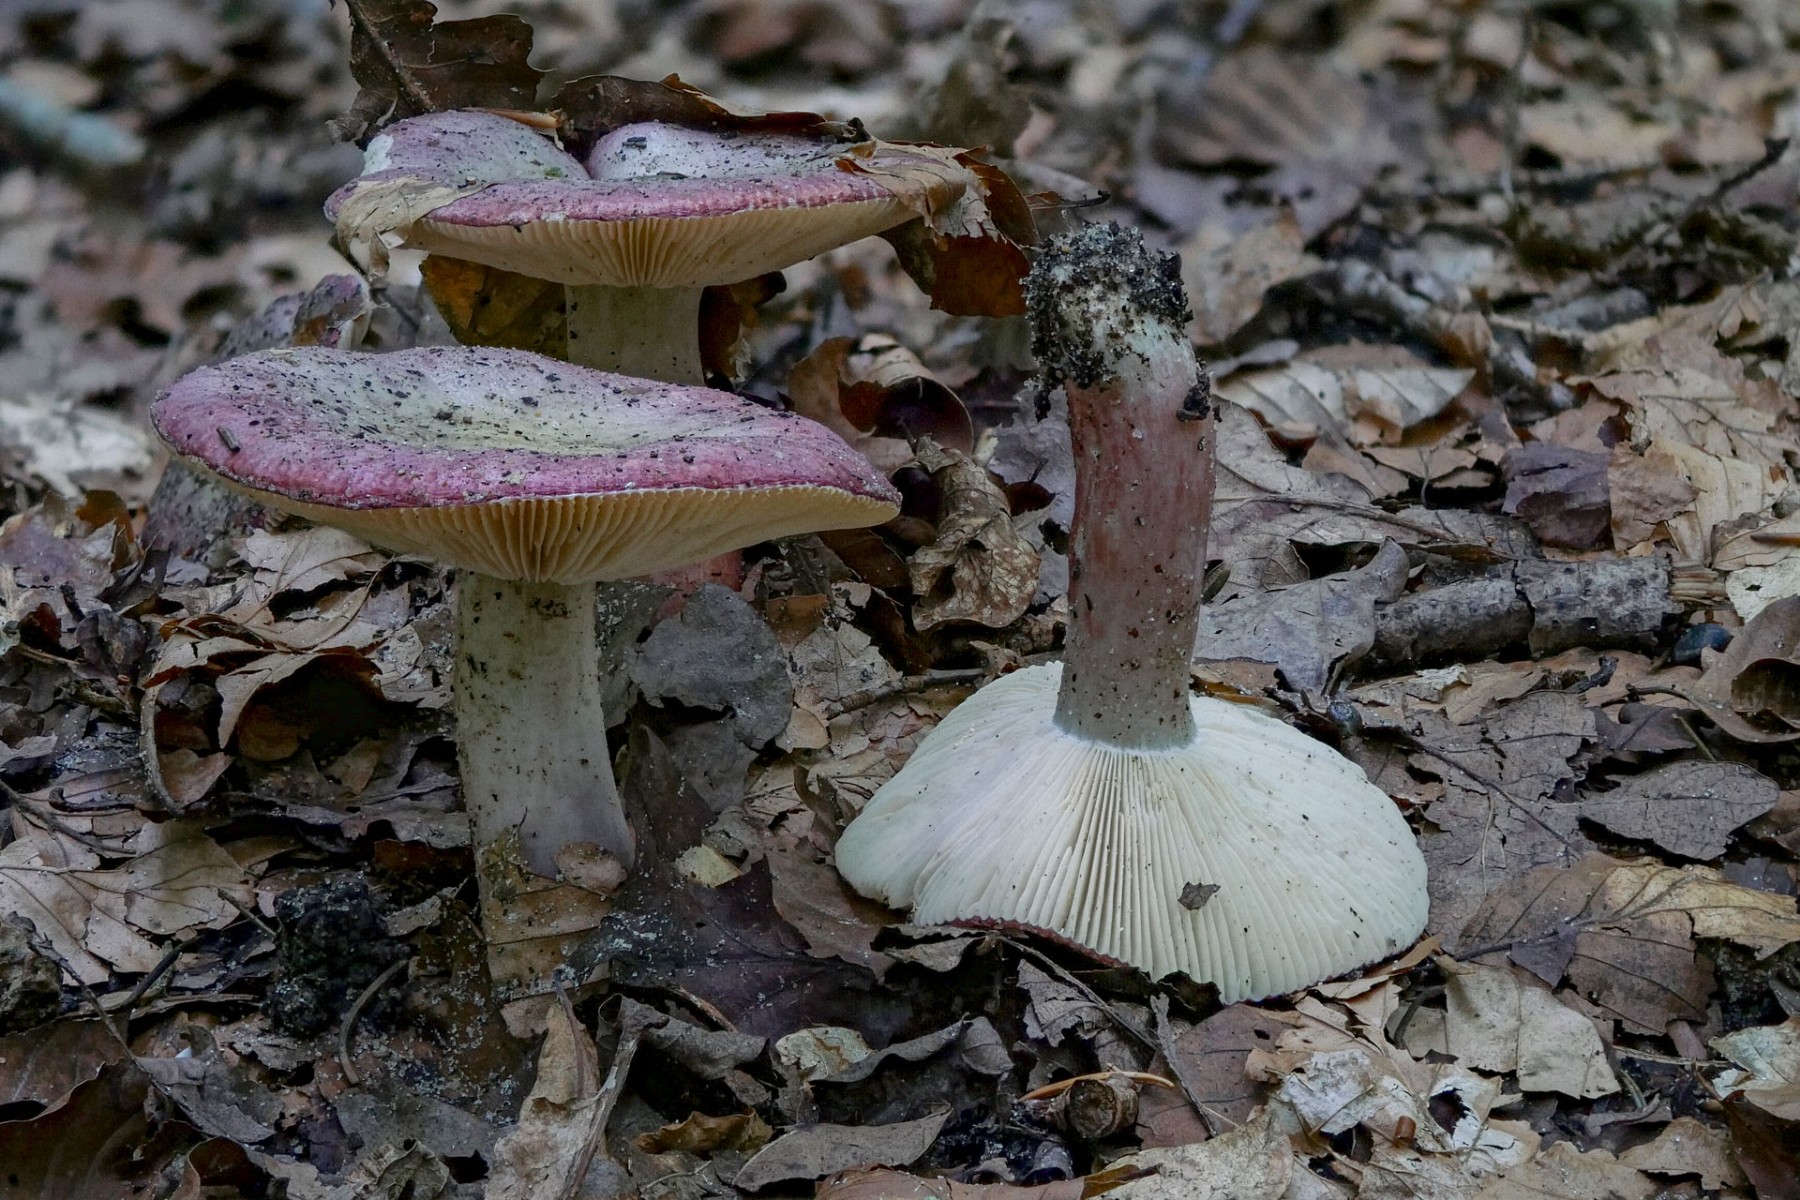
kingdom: Fungi
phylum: Basidiomycota
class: Agaricomycetes
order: Russulales
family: Russulaceae
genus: Russula
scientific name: Russula queletii
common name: Quélets skørhat
